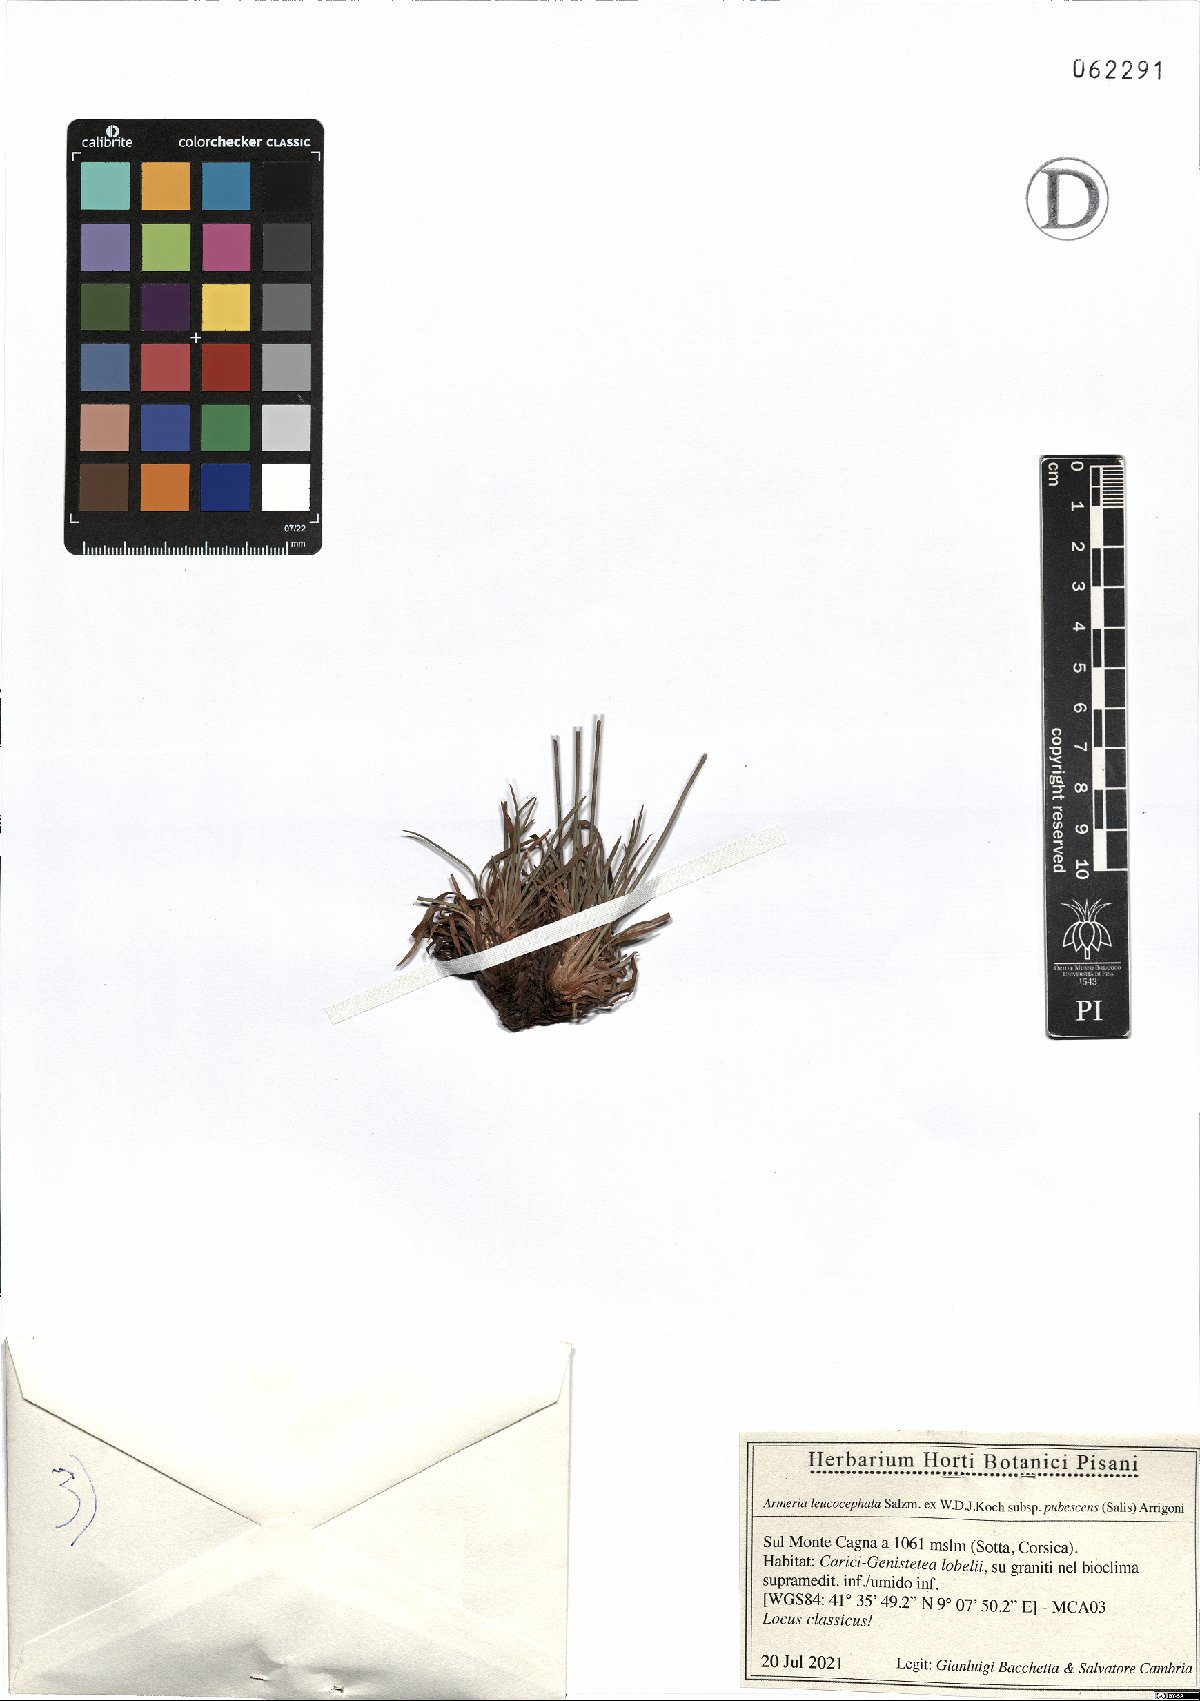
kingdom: Plantae
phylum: Tracheophyta
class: Magnoliopsida
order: Caryophyllales
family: Plumbaginaceae
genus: Armeria
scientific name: Armeria leucocephala
